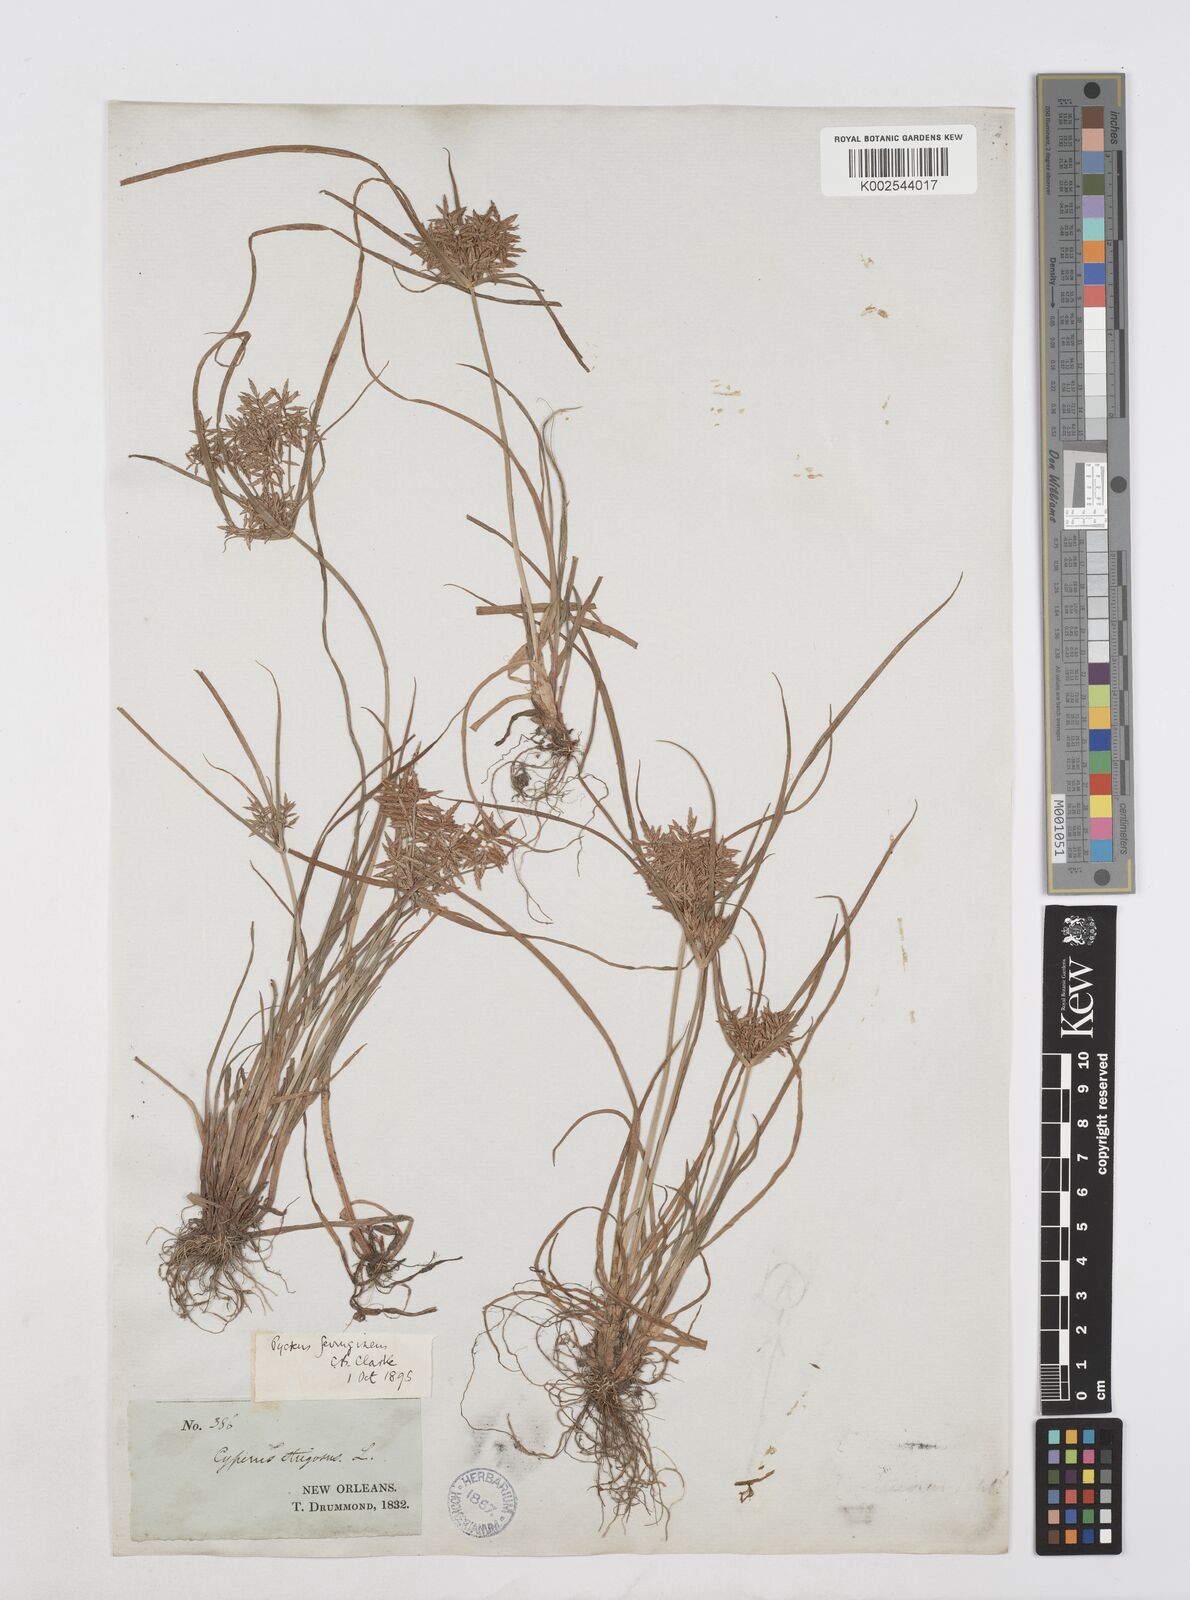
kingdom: Plantae
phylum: Tracheophyta
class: Liliopsida
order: Poales
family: Cyperaceae
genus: Cyperus
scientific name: Cyperus filicinus
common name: Fern flatsedge
